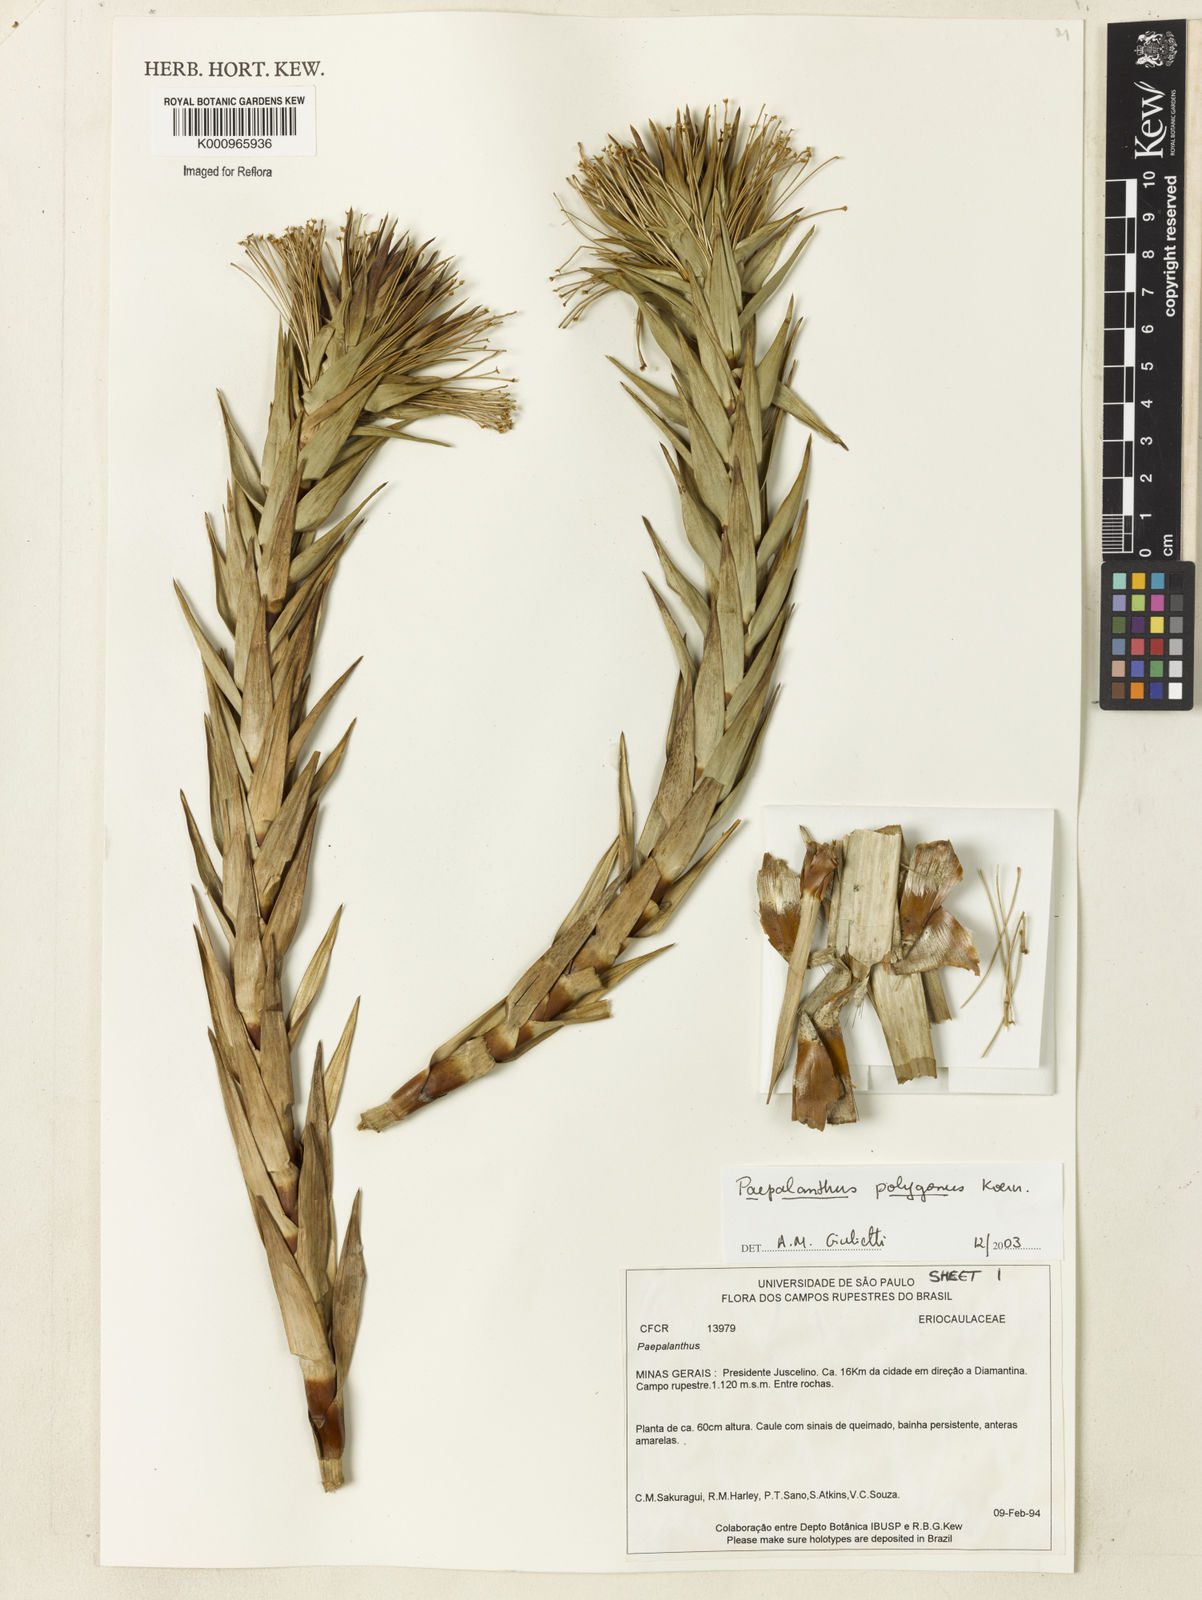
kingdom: Plantae
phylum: Tracheophyta
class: Liliopsida
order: Poales
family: Eriocaulaceae
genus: Paepalanthus
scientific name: Paepalanthus
